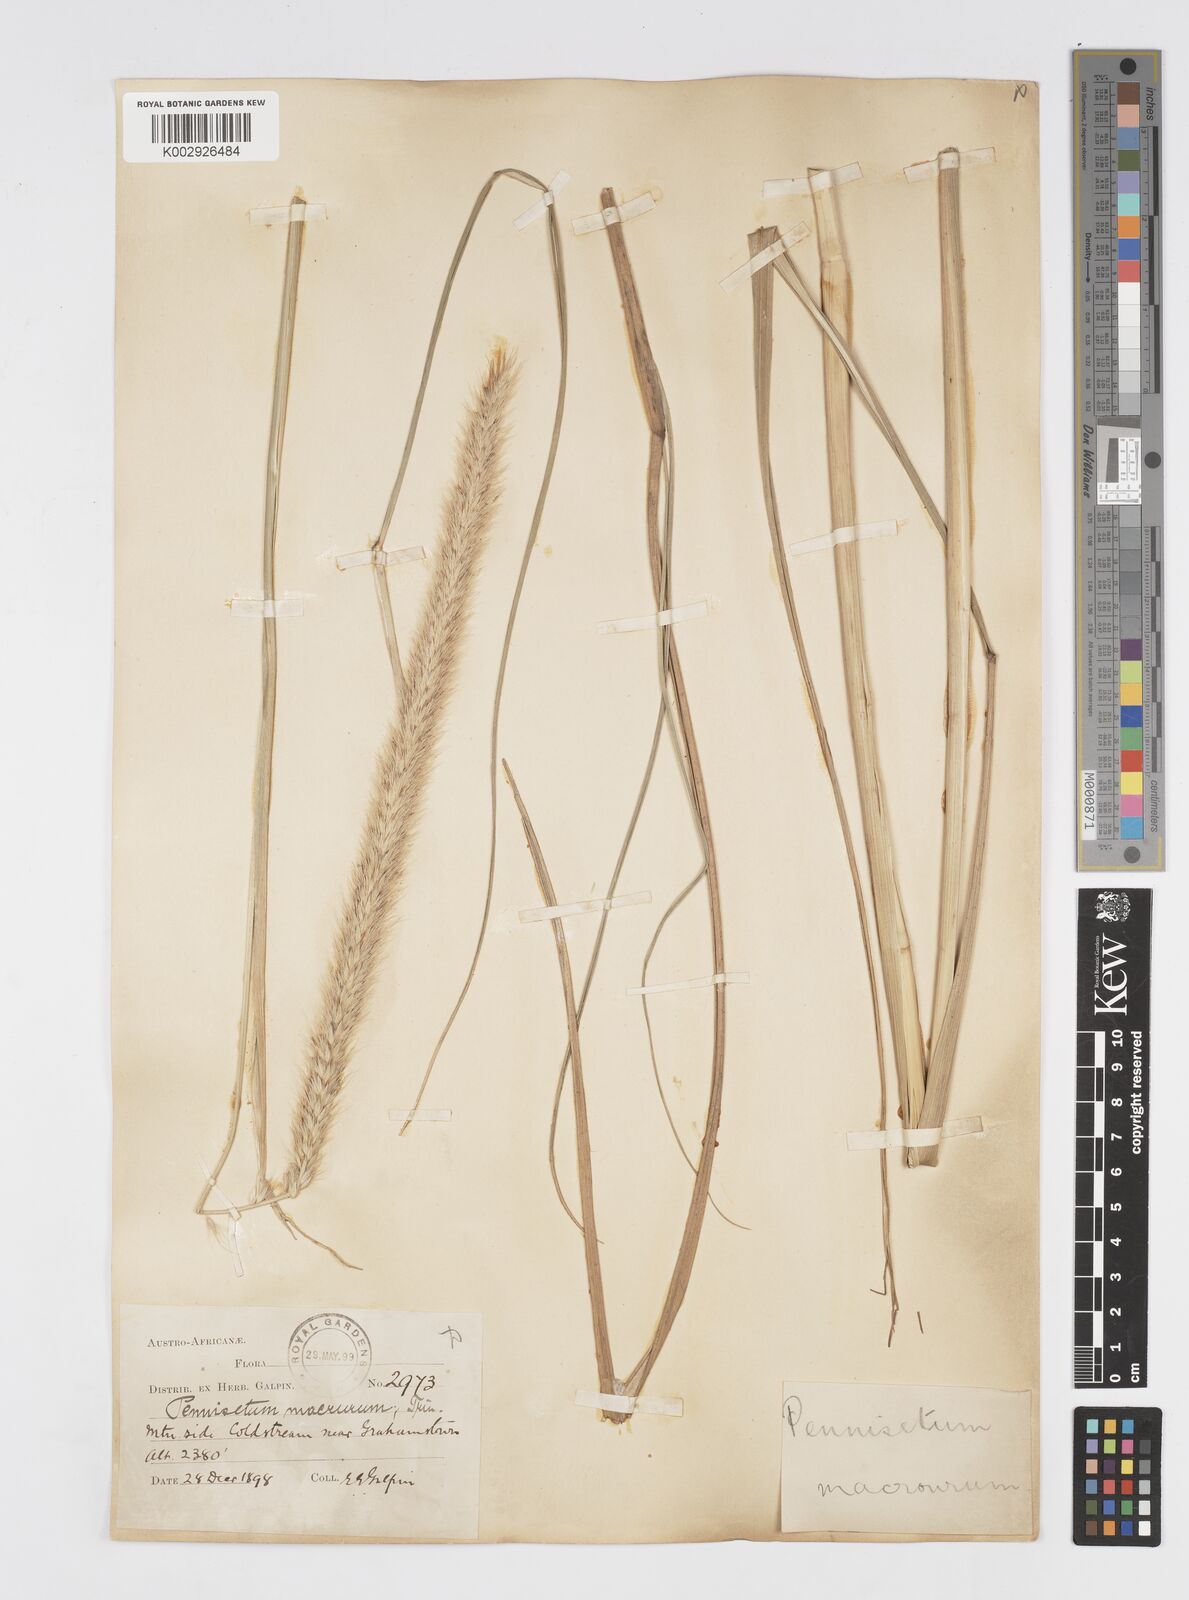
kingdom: Plantae
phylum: Tracheophyta
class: Liliopsida
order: Poales
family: Poaceae
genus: Cenchrus
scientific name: Cenchrus caudatus
